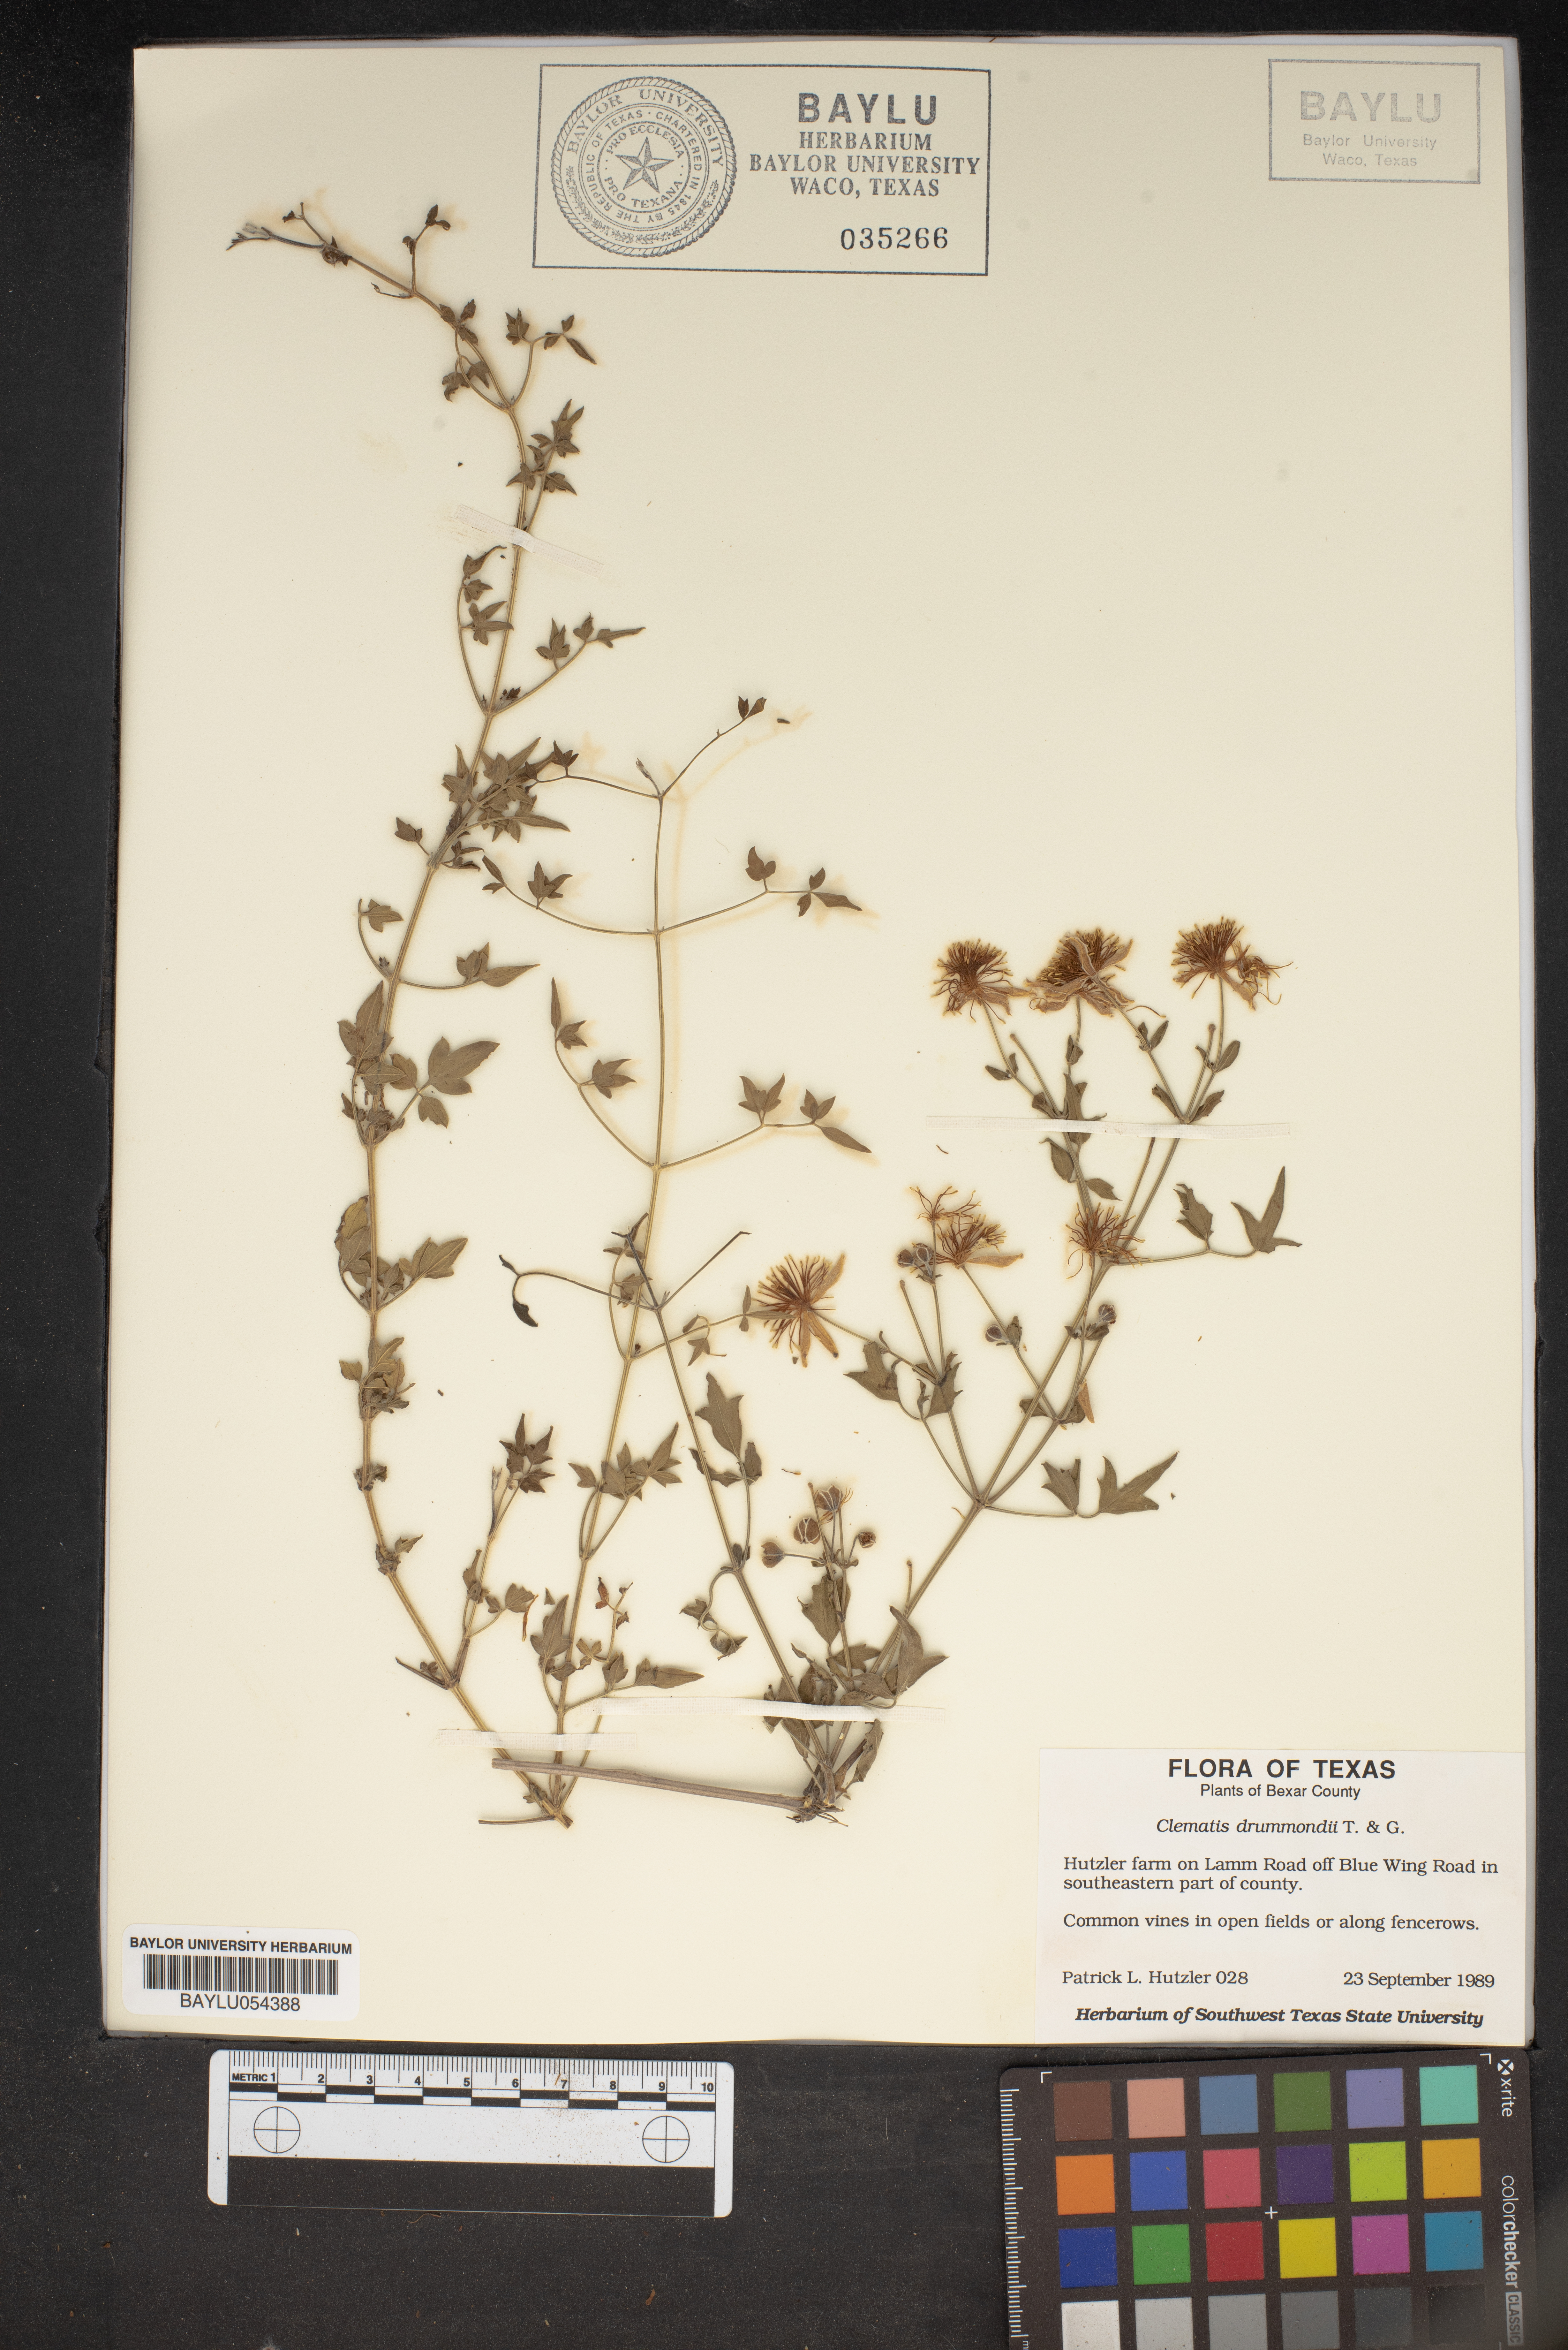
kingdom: Plantae
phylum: Tracheophyta
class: Magnoliopsida
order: Ranunculales
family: Ranunculaceae
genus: Clematis
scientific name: Clematis drummondii
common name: Texas virgin's bower
